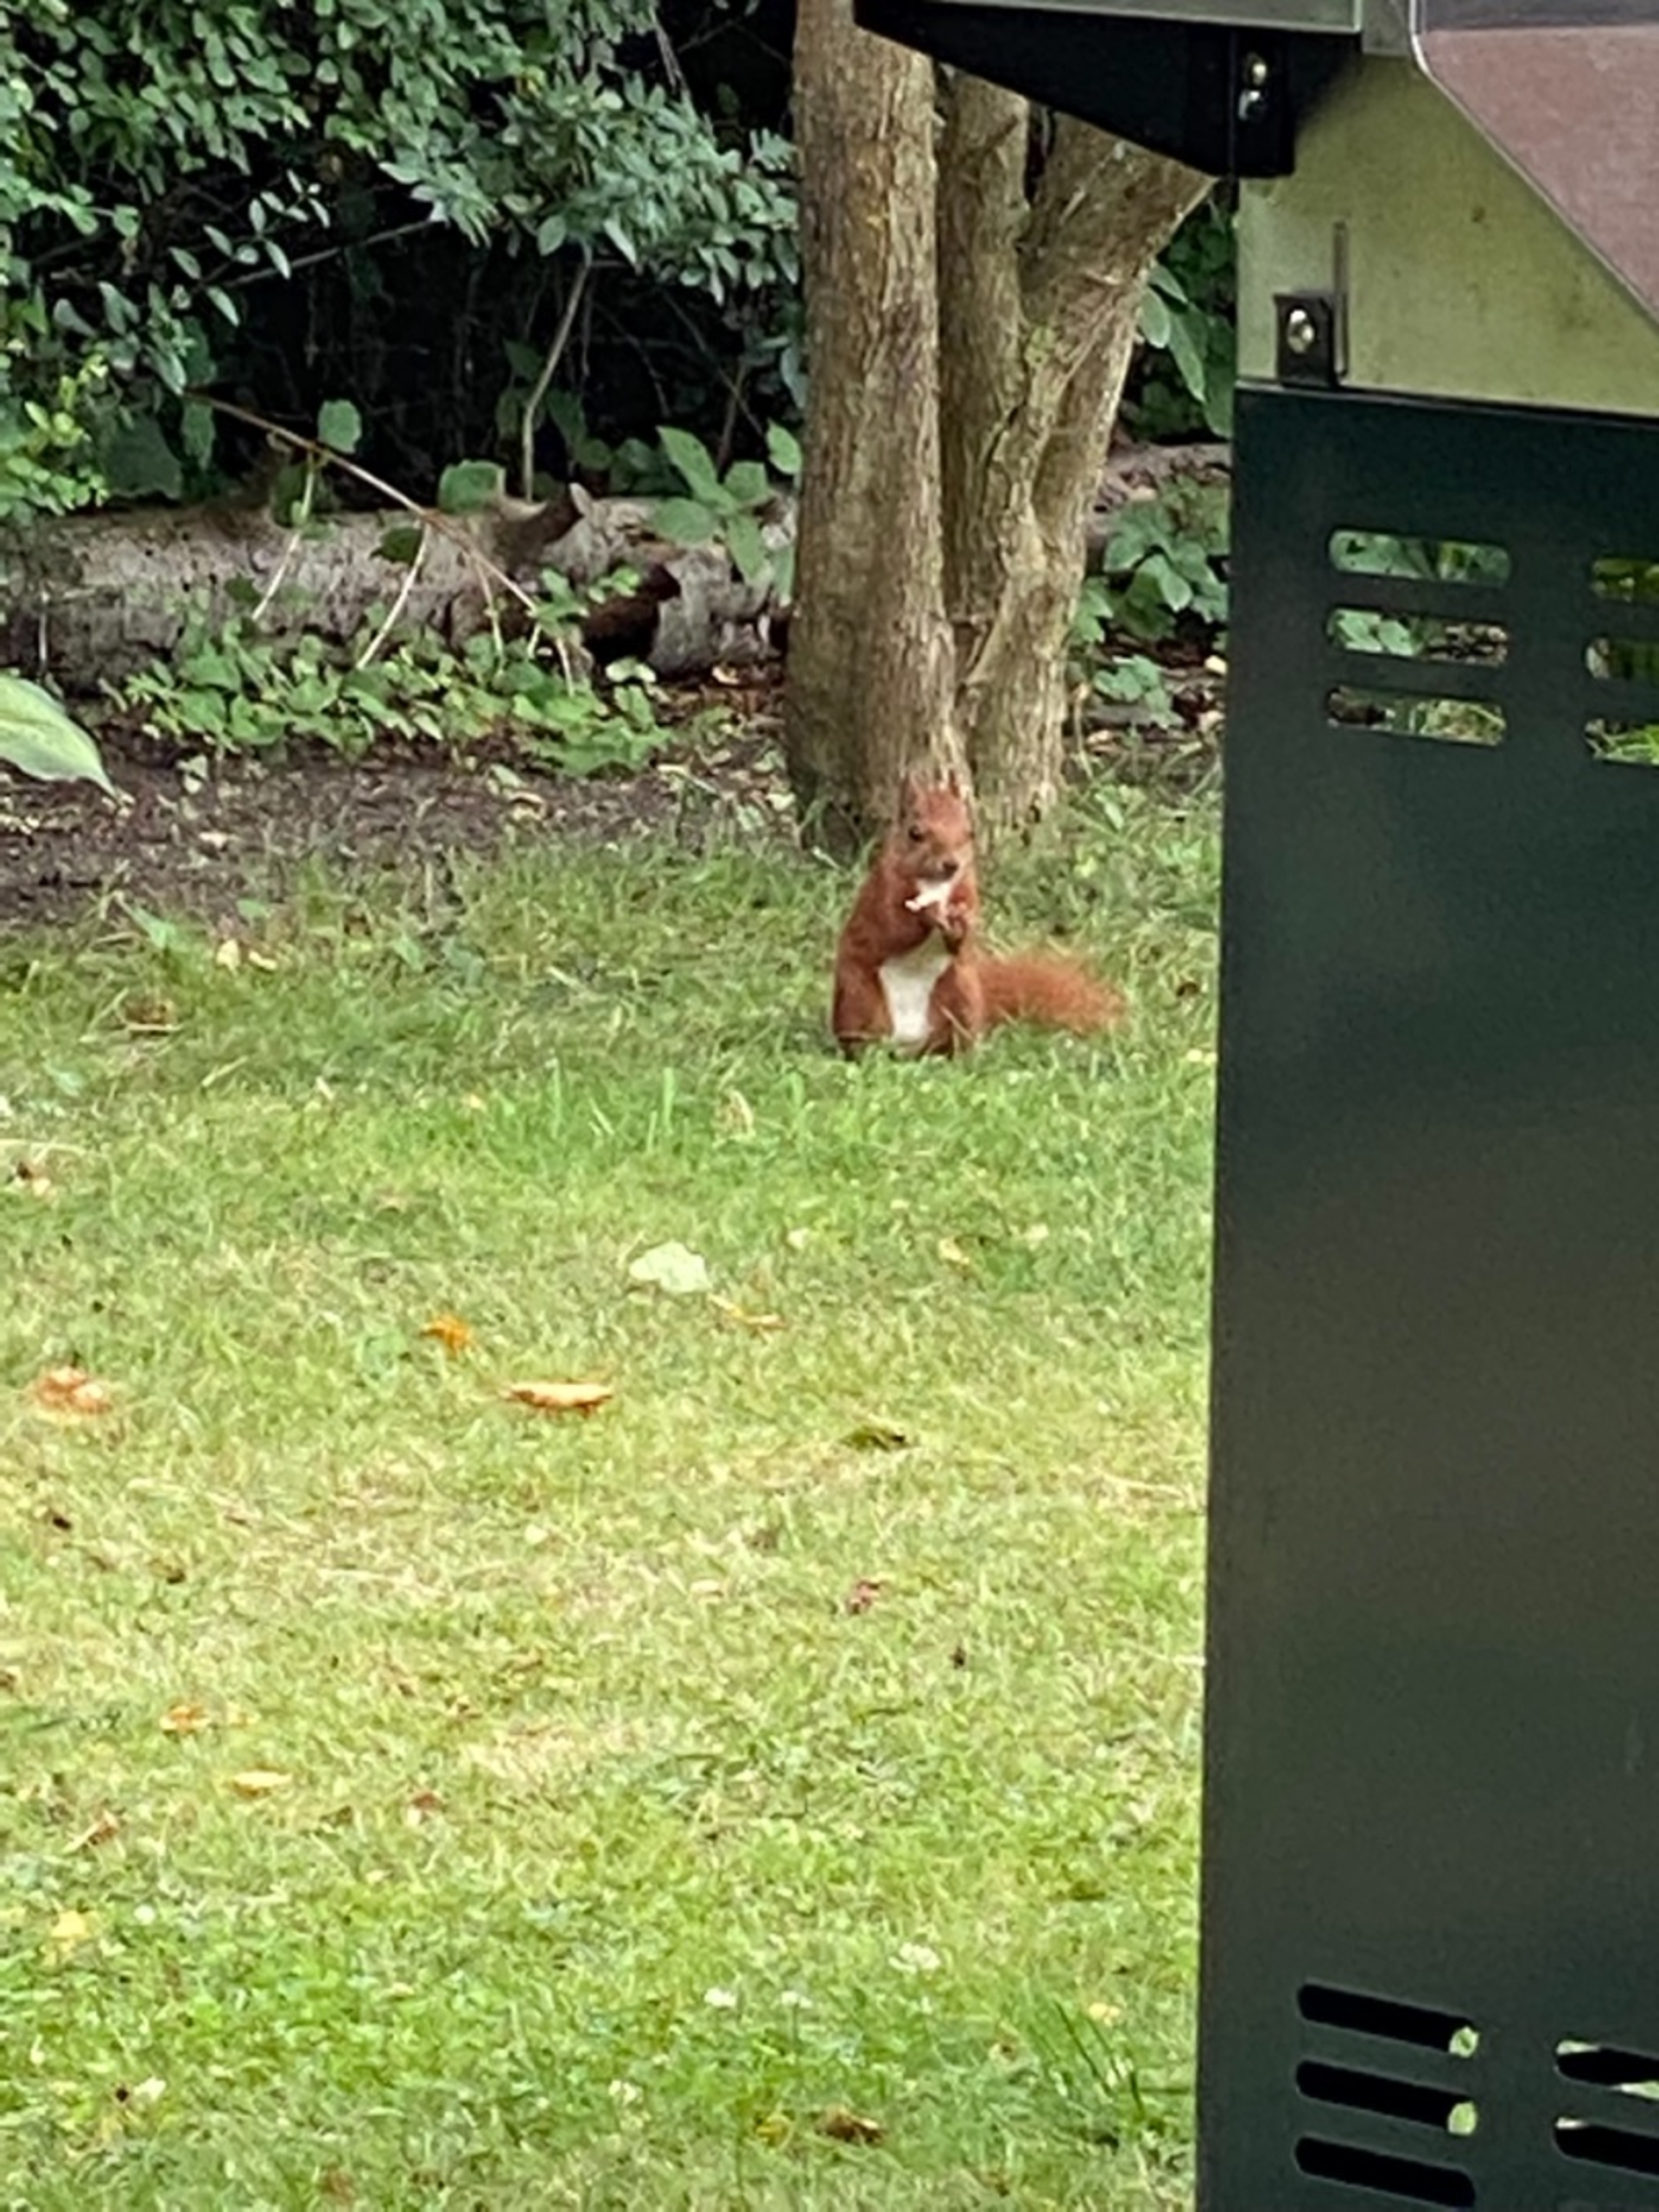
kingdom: Animalia
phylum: Chordata
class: Mammalia
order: Rodentia
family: Sciuridae
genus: Sciurus
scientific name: Sciurus vulgaris
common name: Egern
